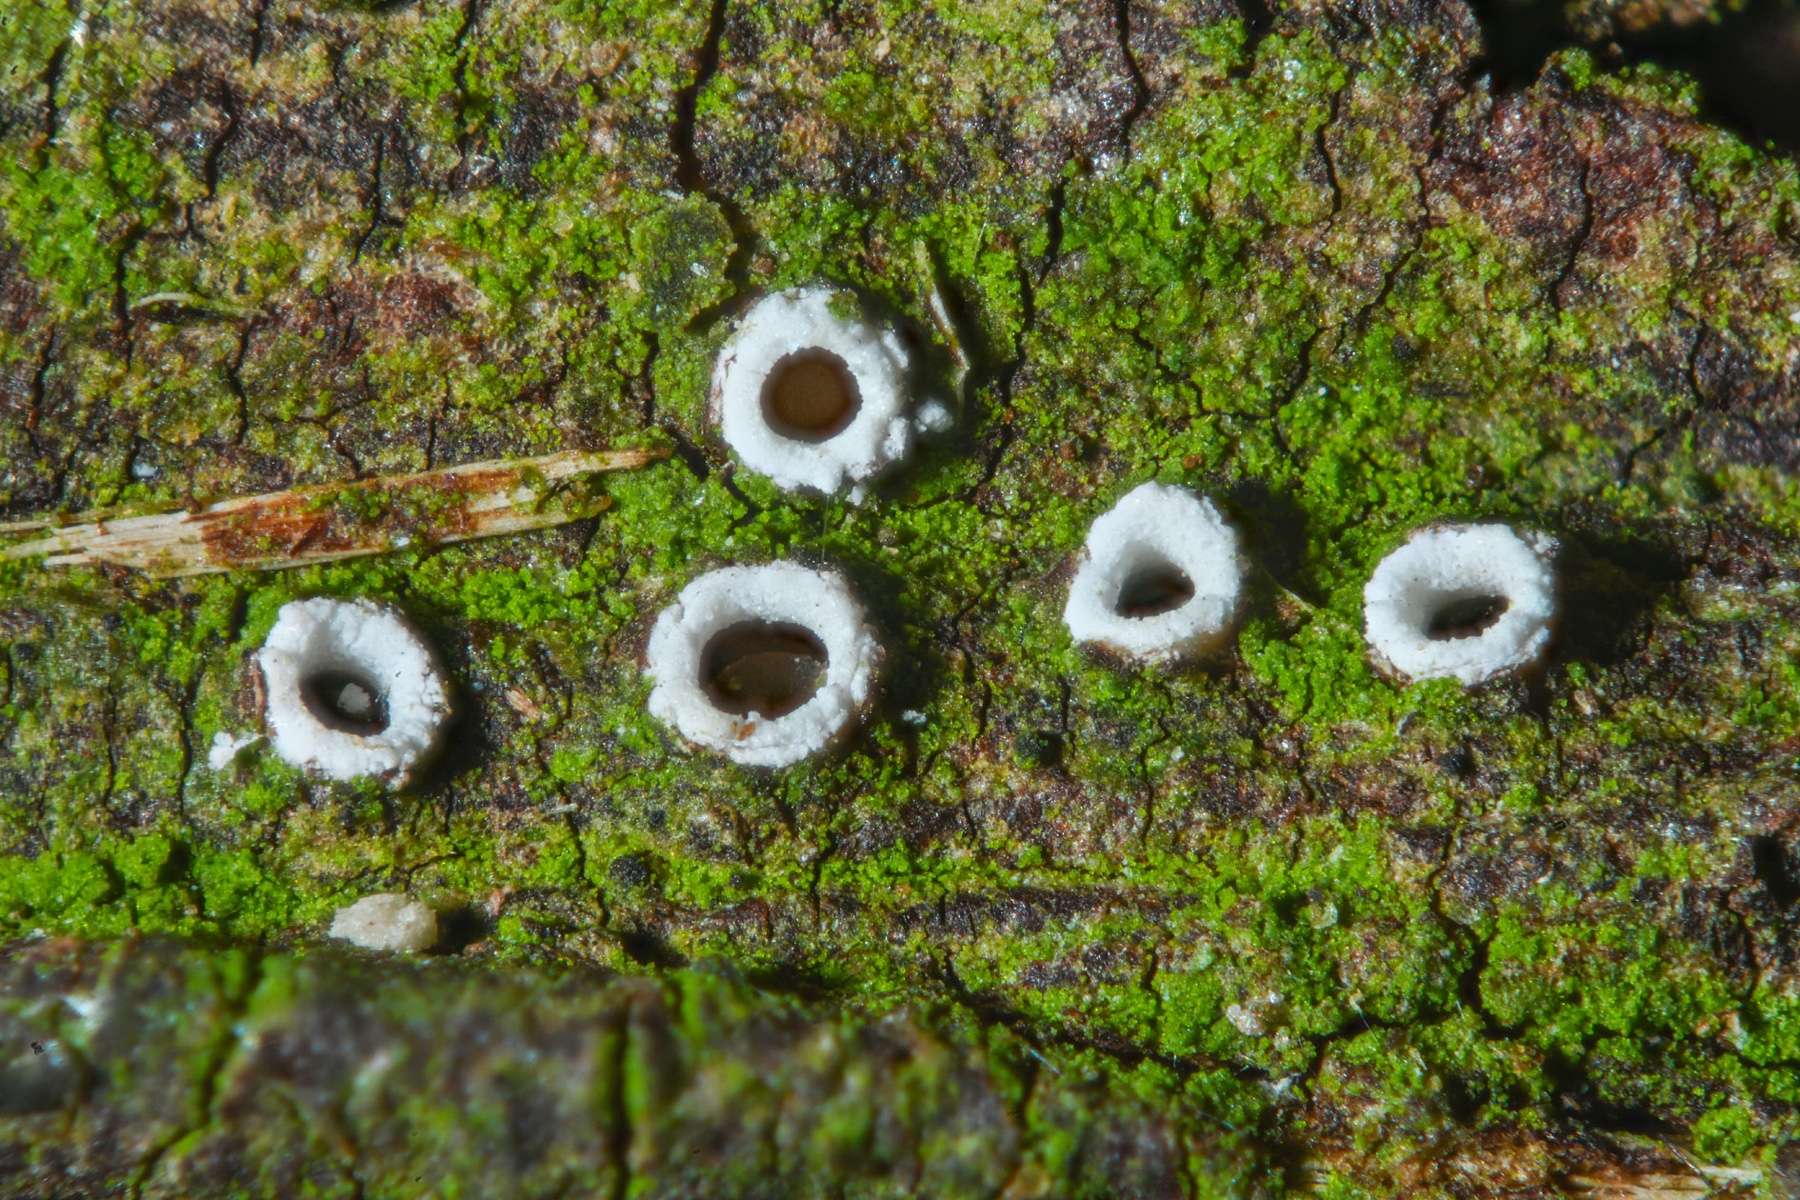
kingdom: Fungi
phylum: Ascomycota
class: Lecanoromycetes
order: Ostropales
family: Stictidaceae
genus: Stictis
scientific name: Stictis radiata
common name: tandet barkhul
